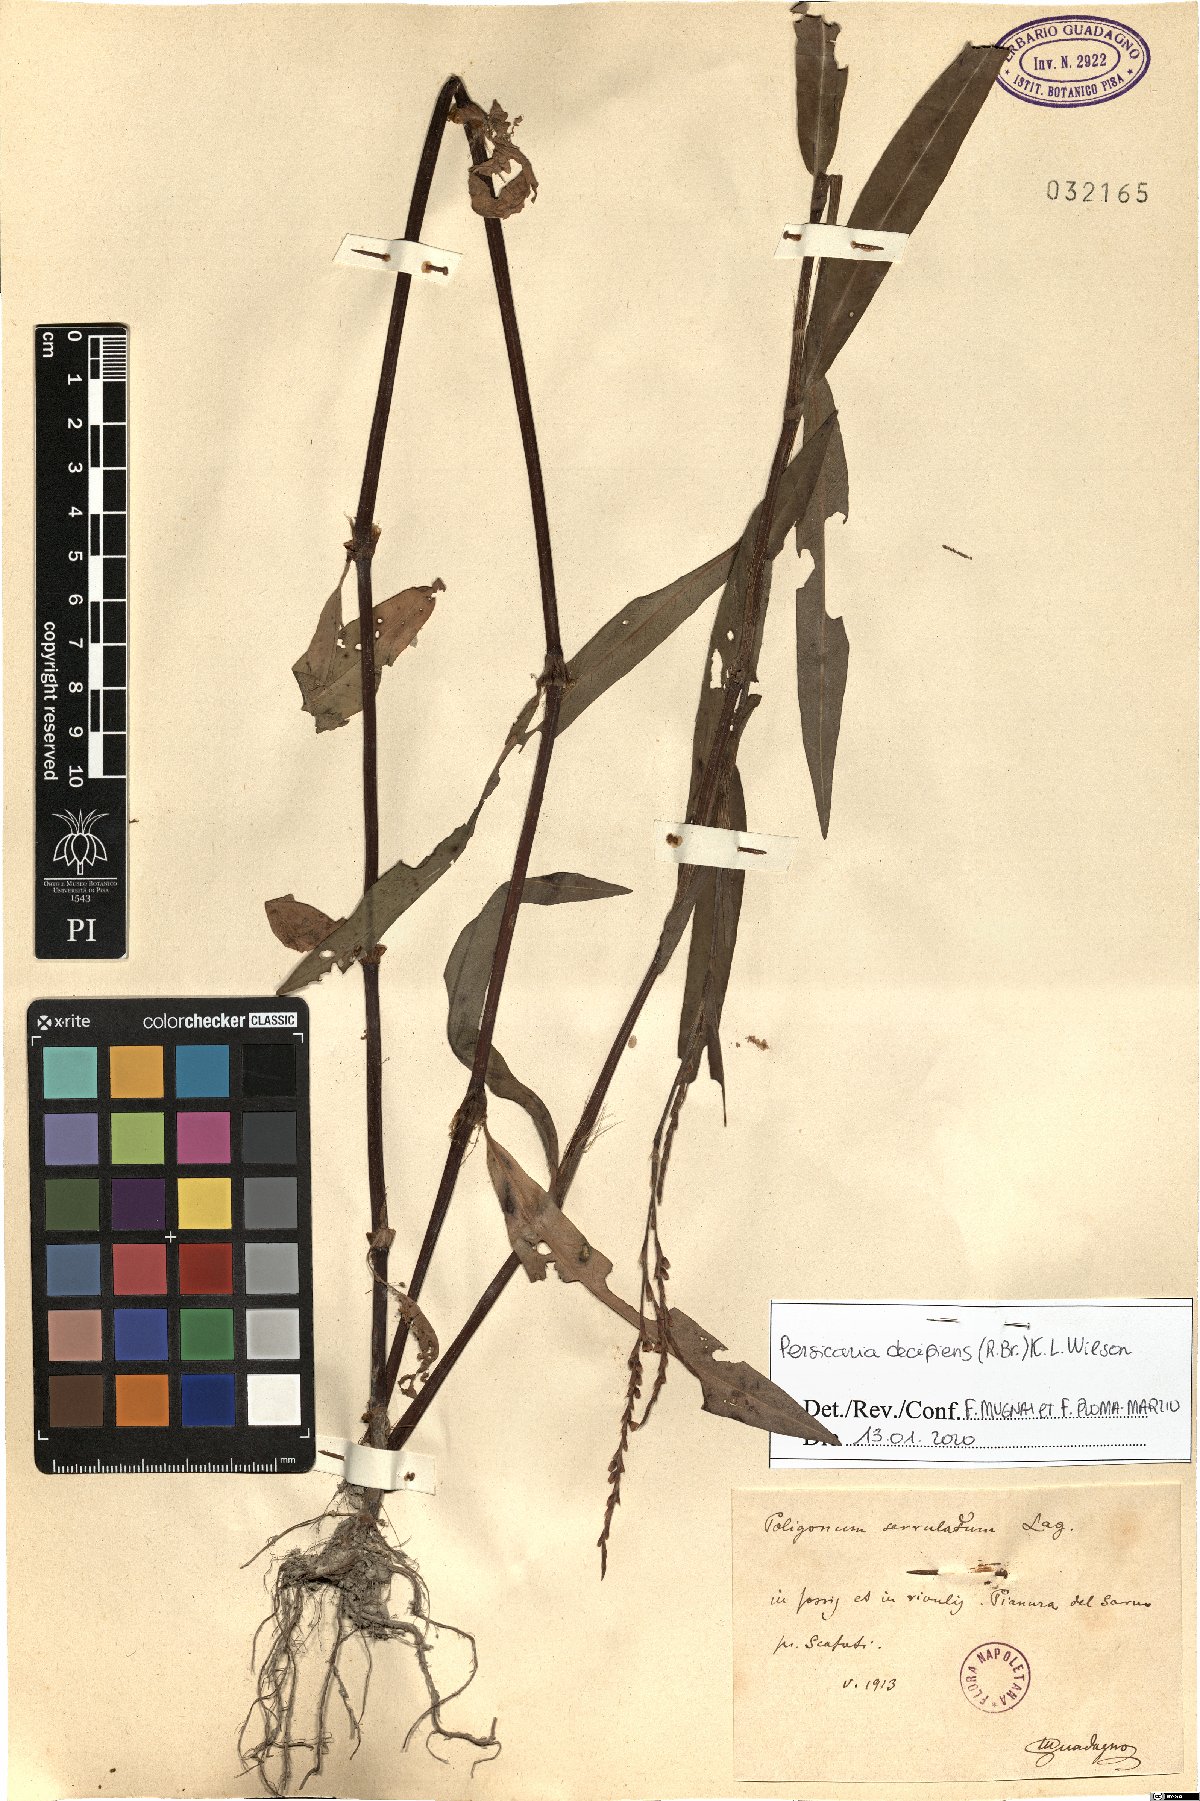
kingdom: Plantae
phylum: Tracheophyta
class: Magnoliopsida
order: Caryophyllales
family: Polygonaceae
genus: Persicaria
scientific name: Persicaria decipiens
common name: Willow-weed
